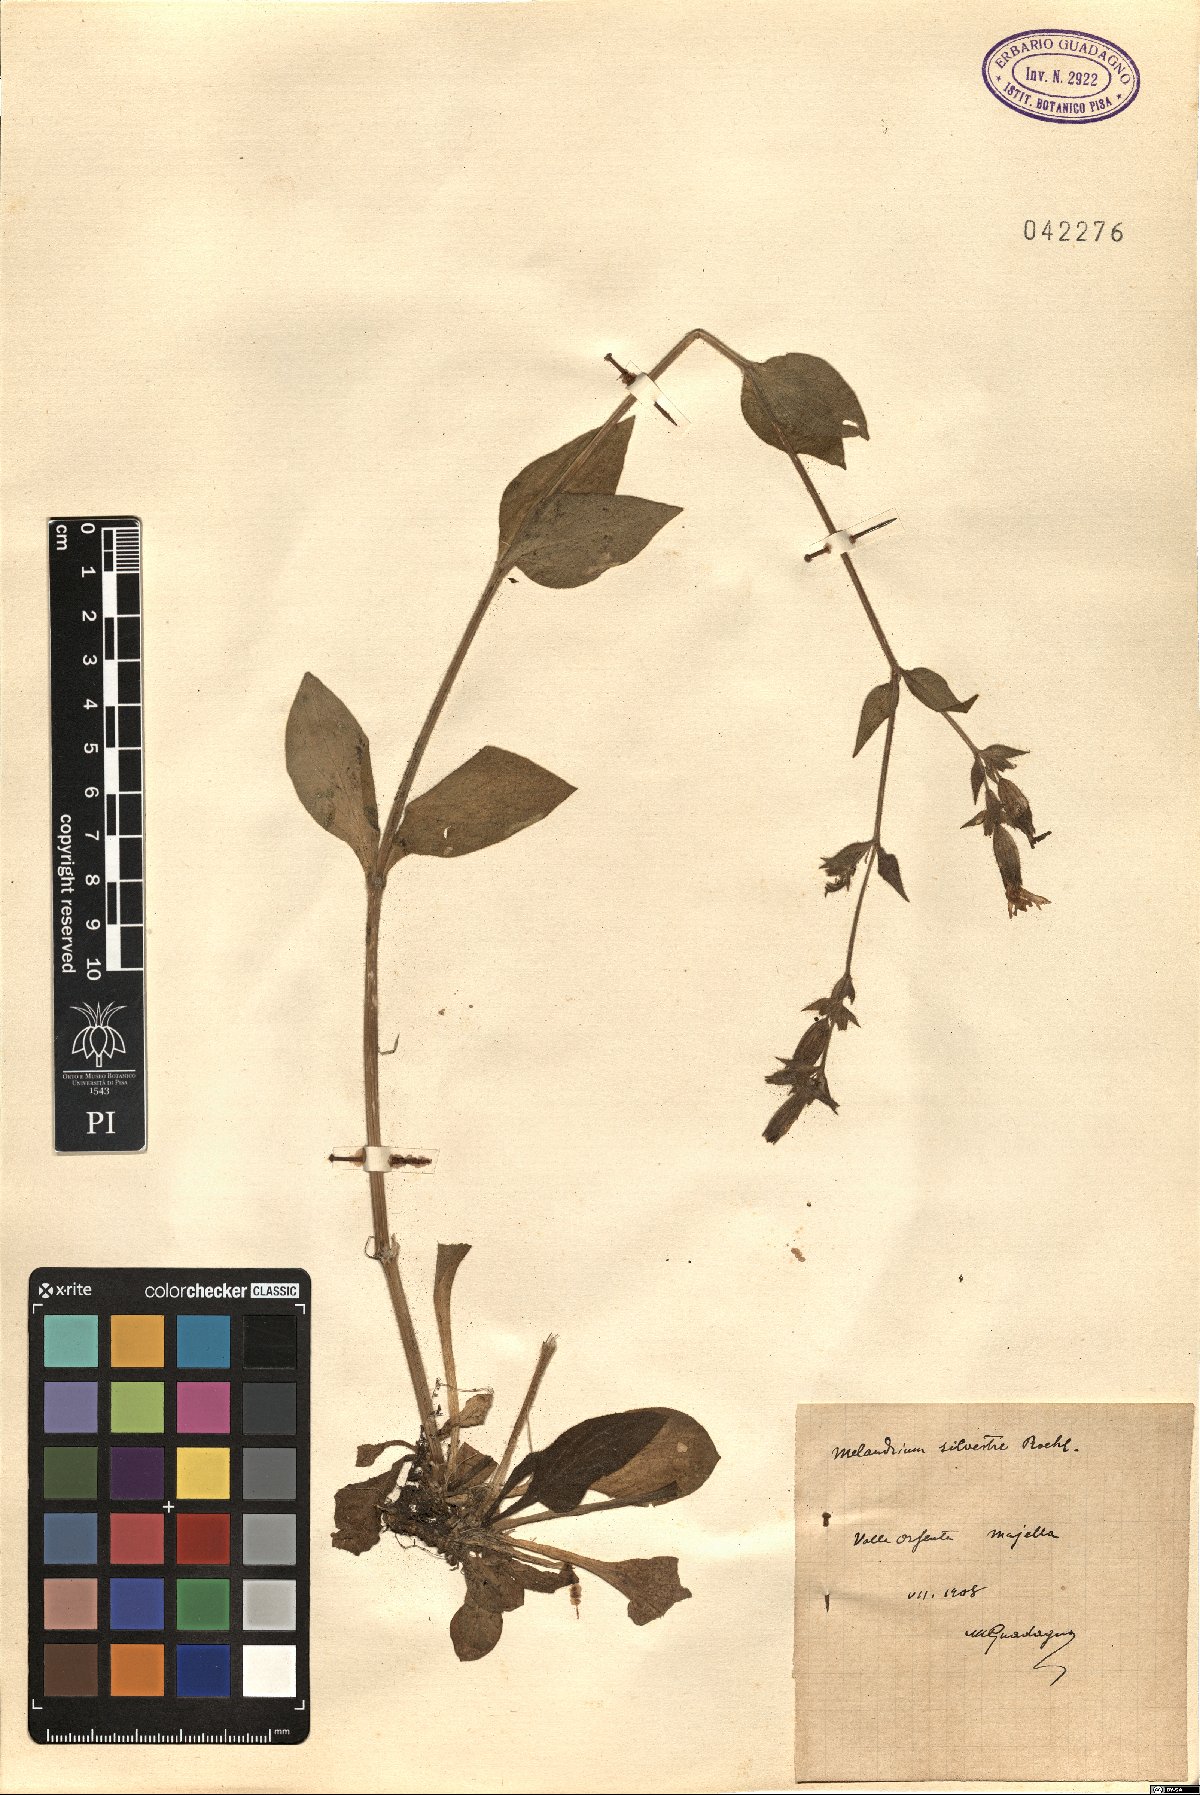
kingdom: Plantae
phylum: Tracheophyta
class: Magnoliopsida
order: Caryophyllales
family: Caryophyllaceae
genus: Silene
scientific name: Silene dioica
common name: Red campion
